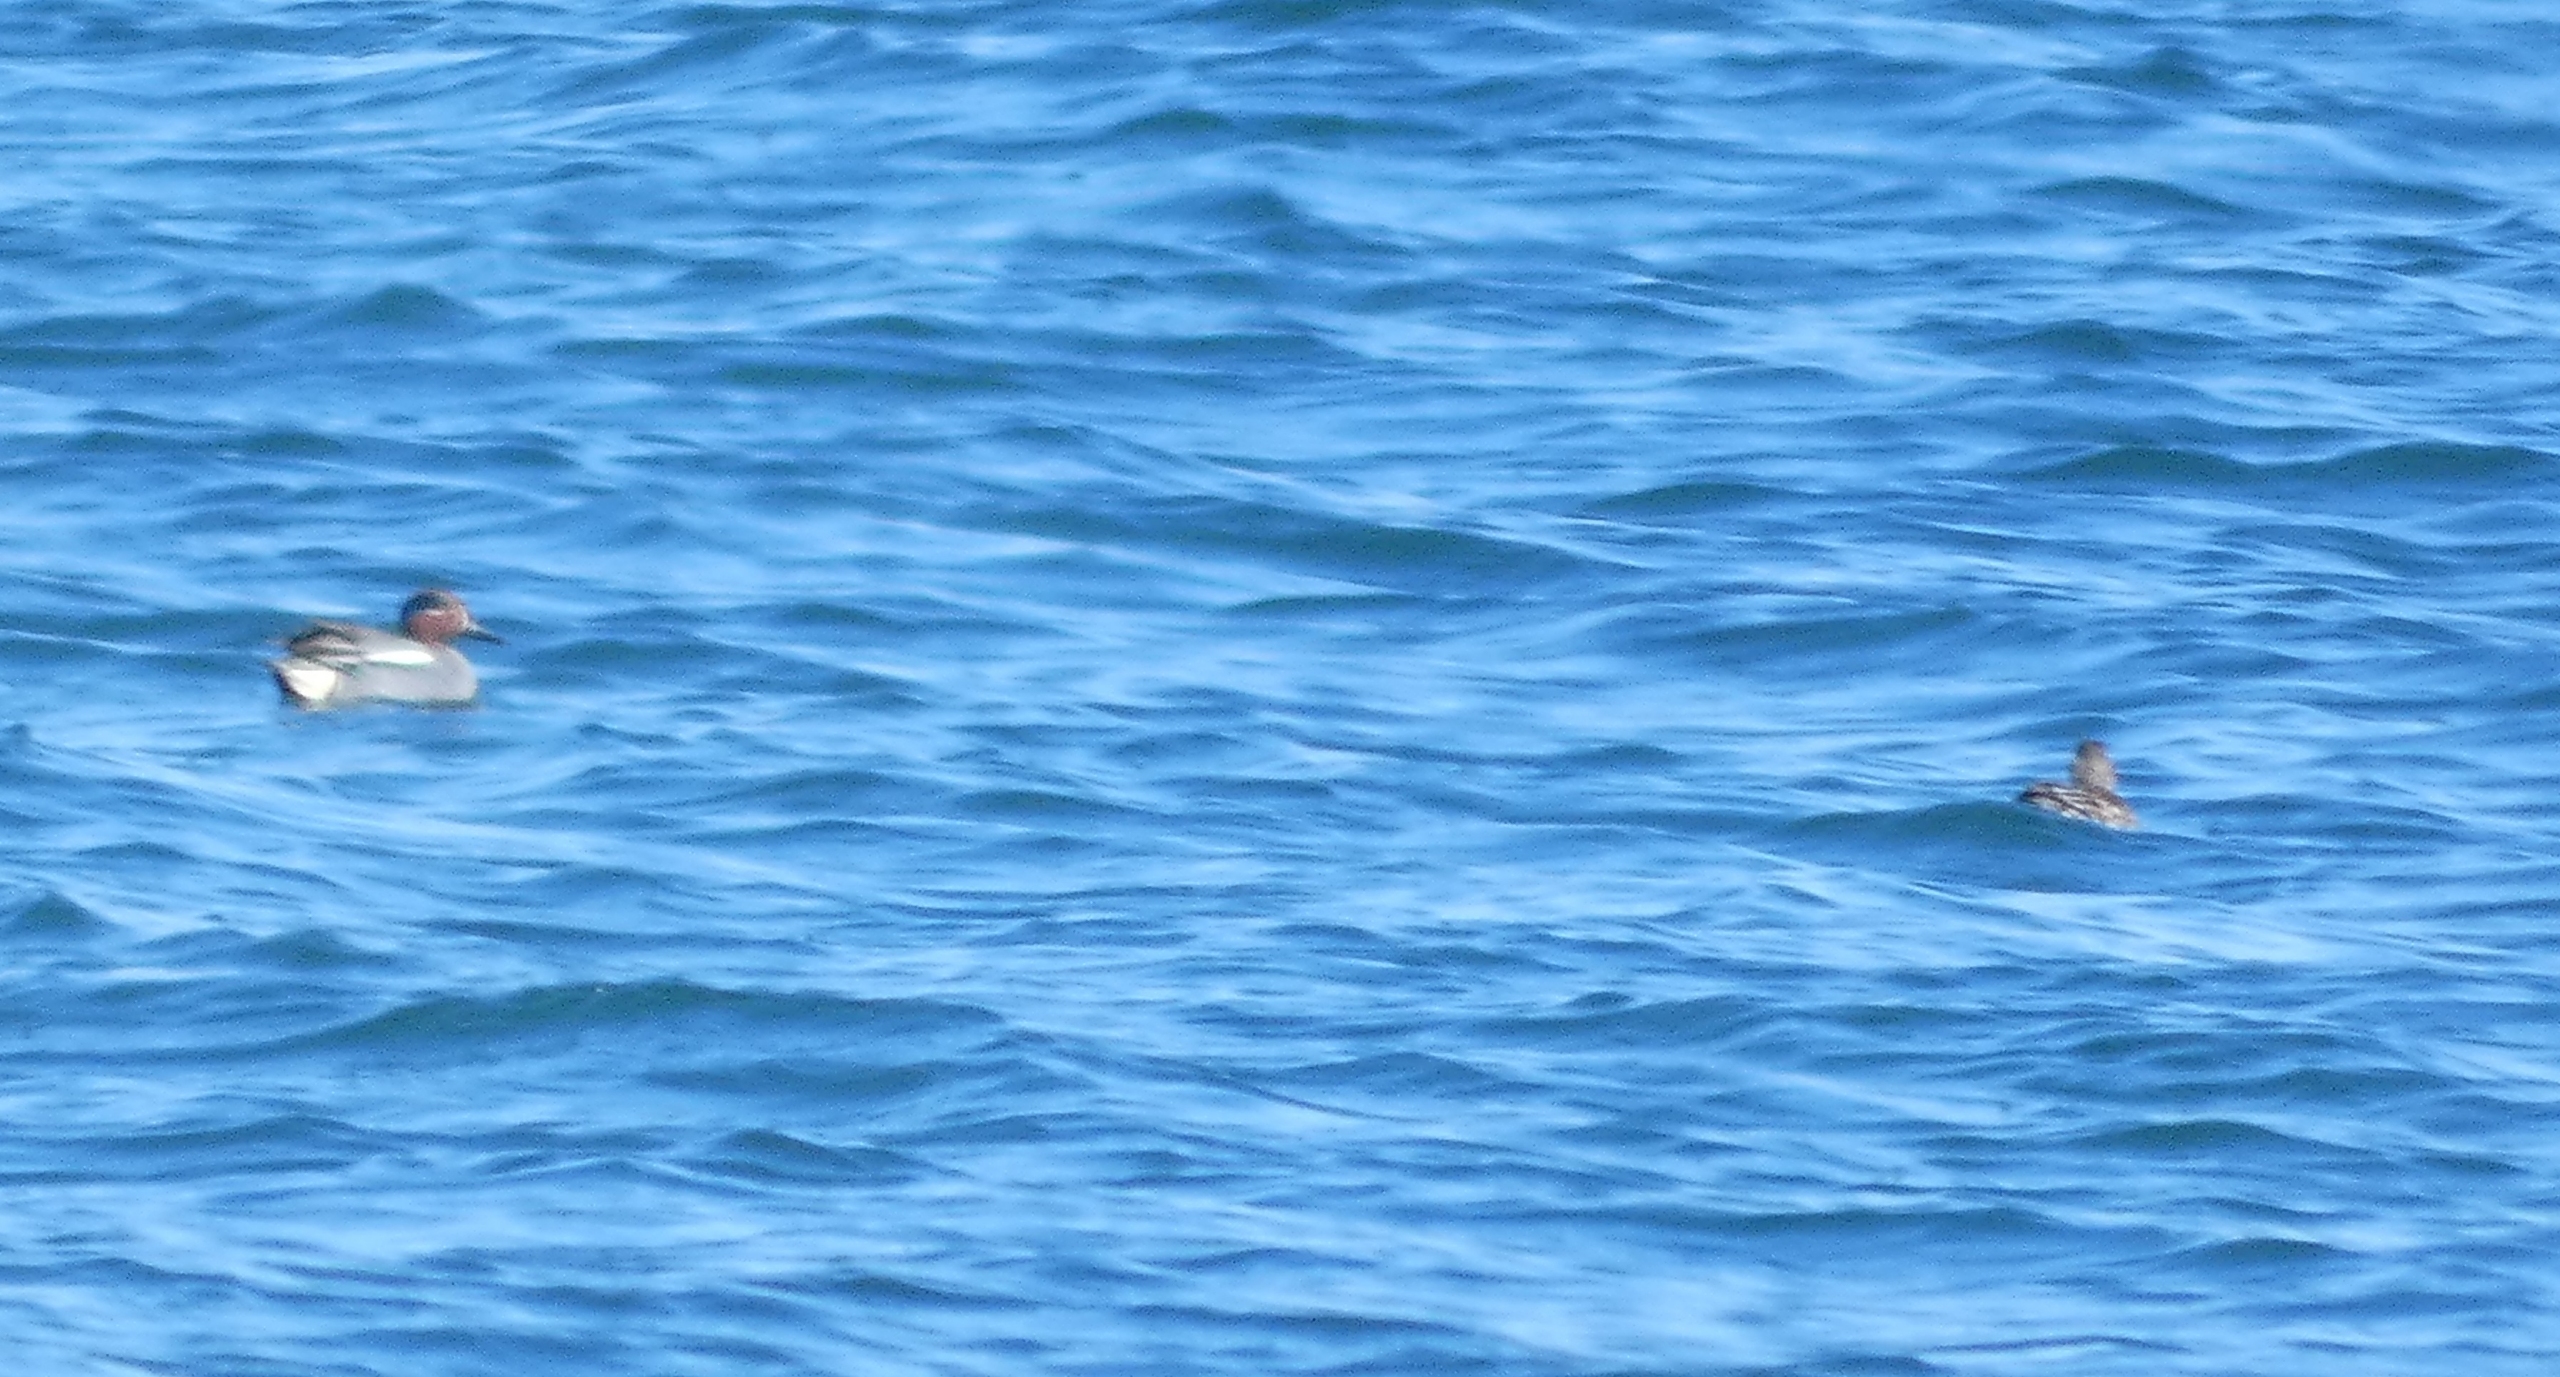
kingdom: Animalia
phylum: Chordata
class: Aves
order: Anseriformes
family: Anatidae
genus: Anas
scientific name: Anas crecca
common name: Krikand
